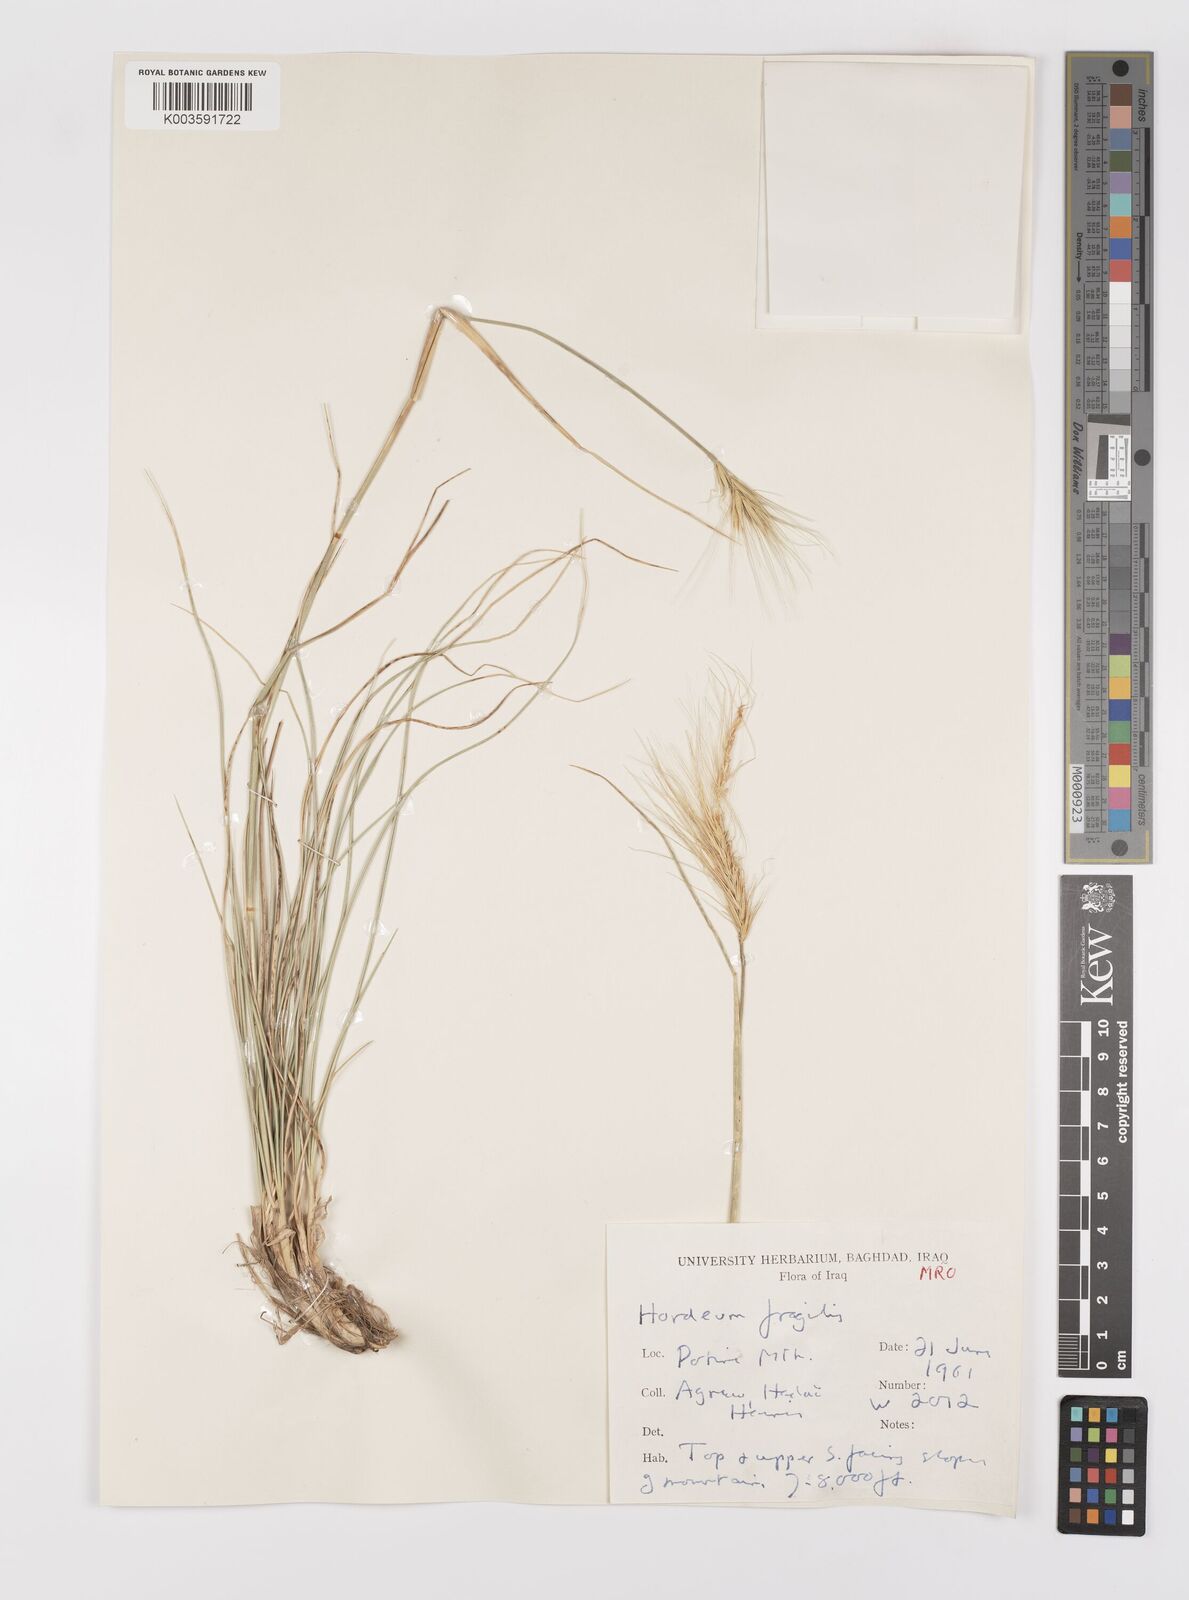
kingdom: Plantae
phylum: Tracheophyta
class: Liliopsida
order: Poales
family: Poaceae
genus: Psathyrostachys
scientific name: Psathyrostachys fragilis
